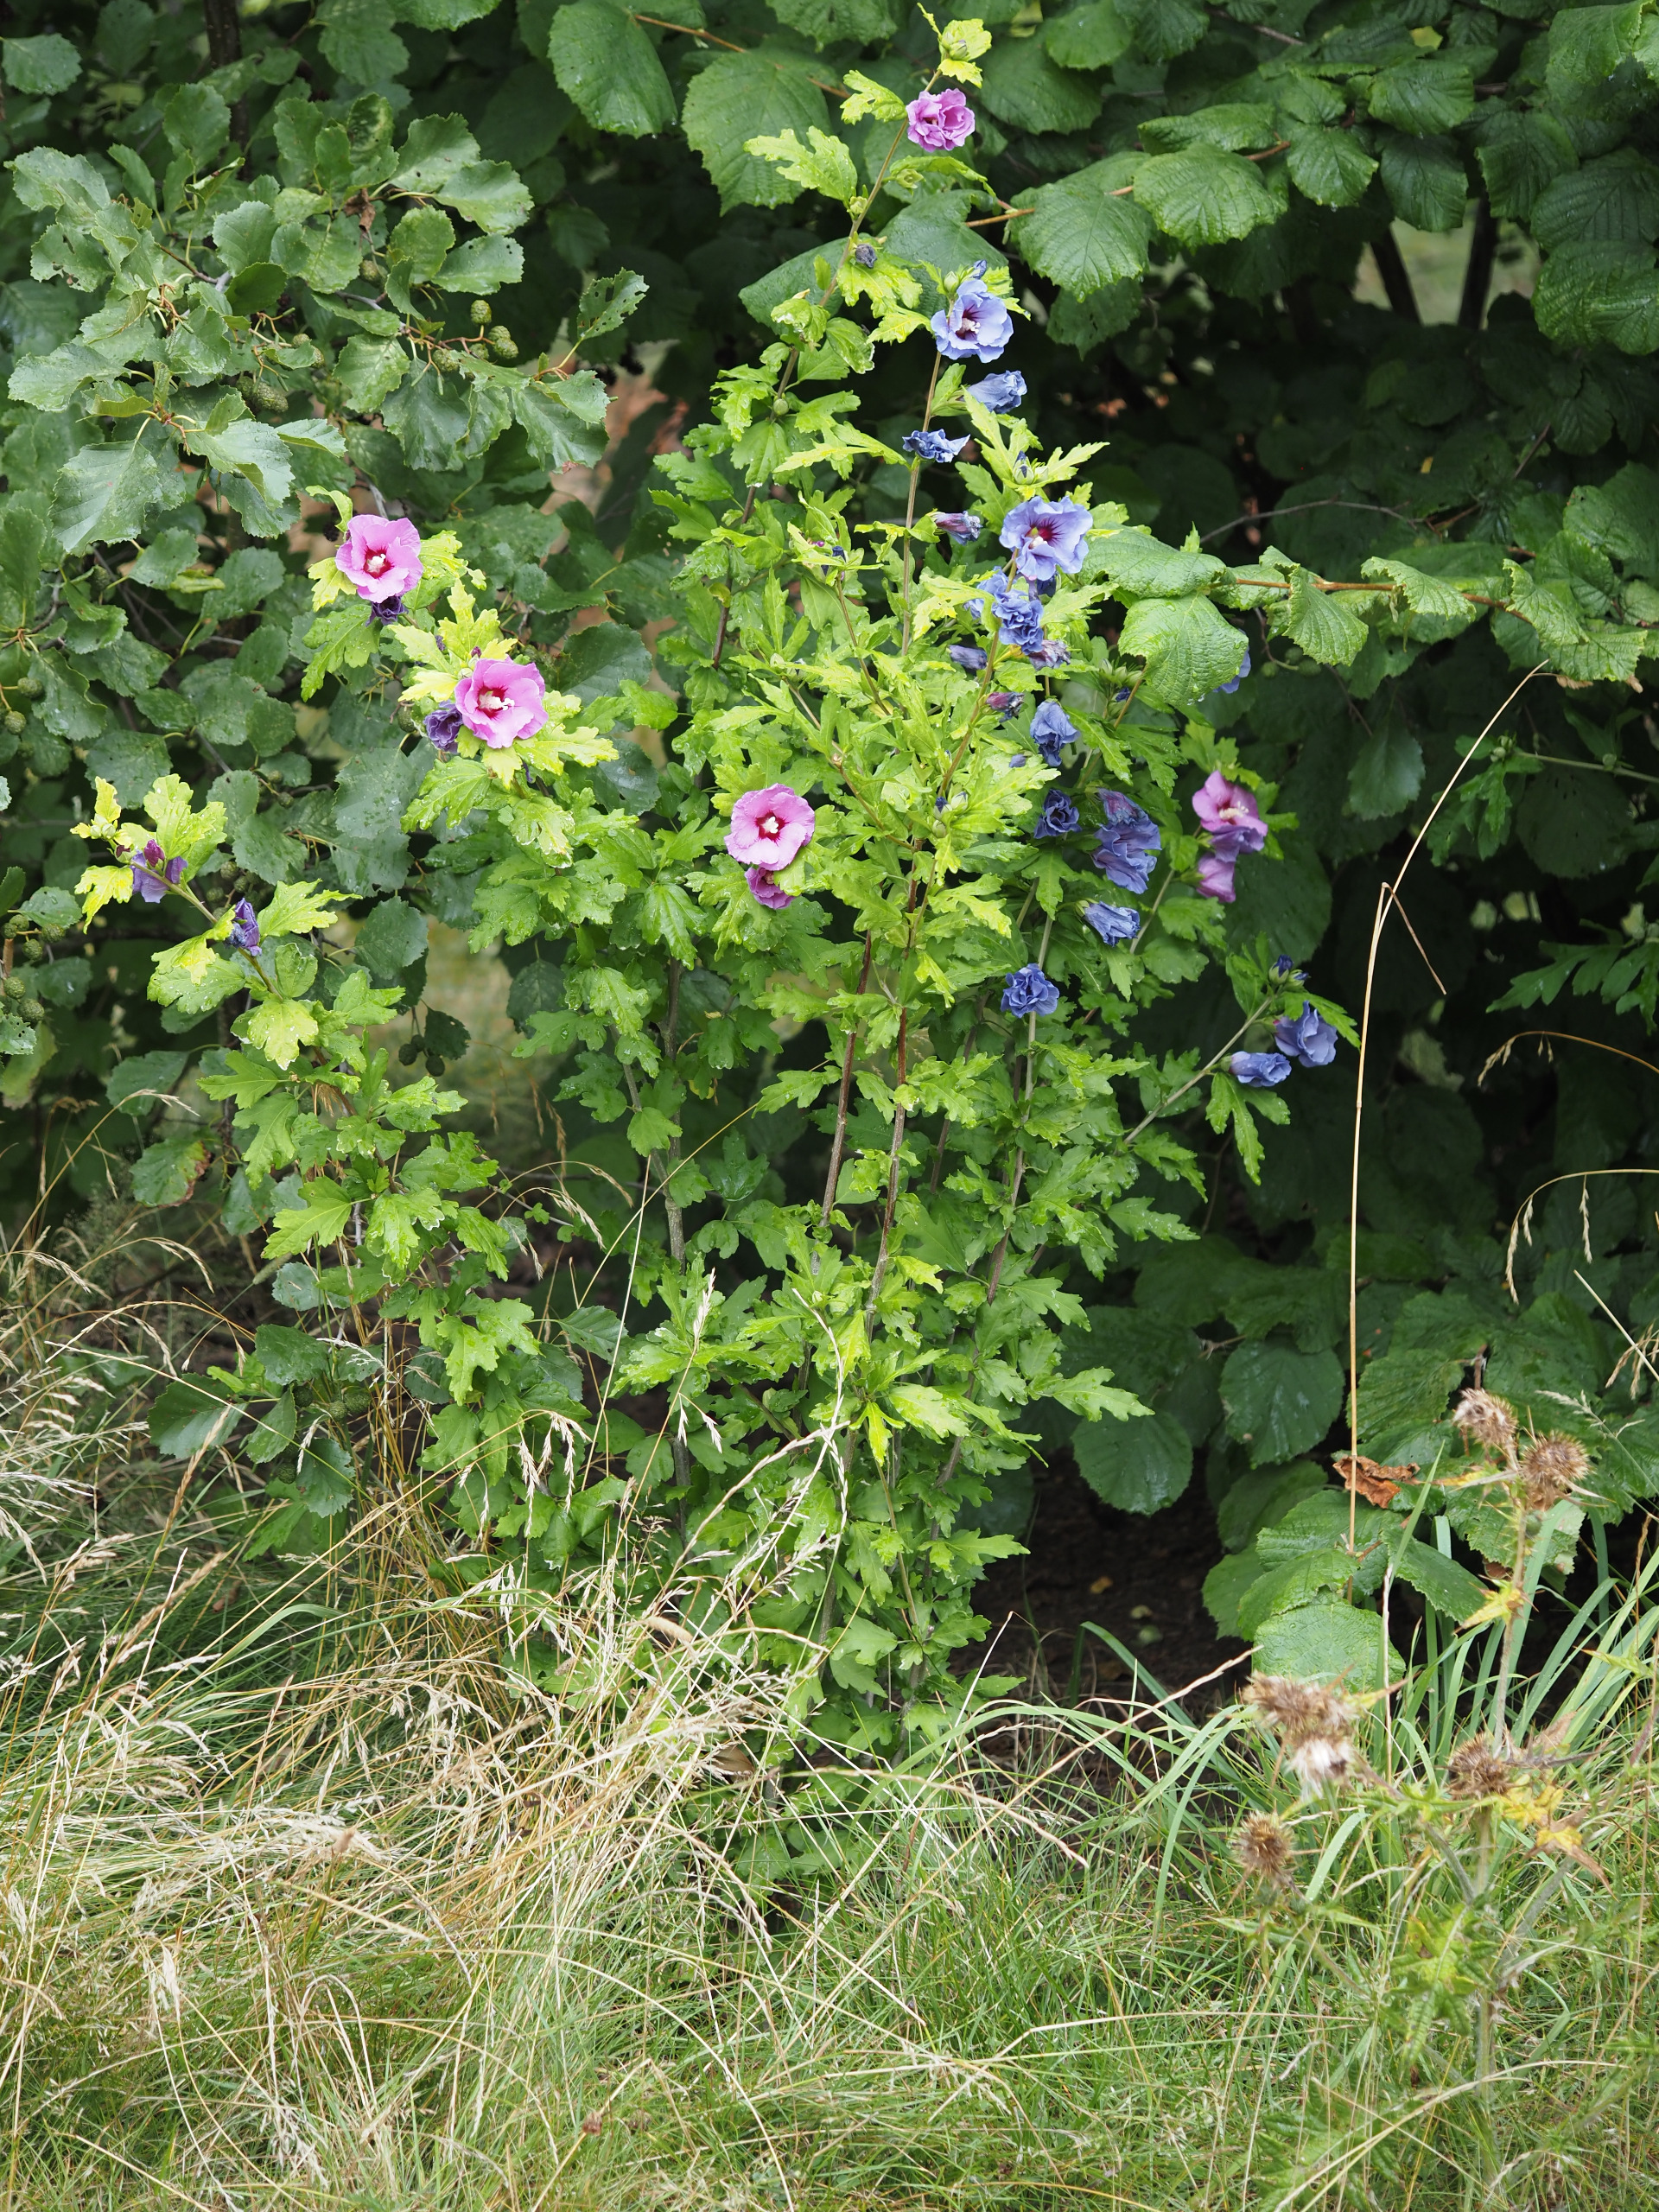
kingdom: Plantae
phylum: Tracheophyta
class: Magnoliopsida
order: Malvales
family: Malvaceae
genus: Hibiscus
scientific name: Hibiscus
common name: Hibiskusslægten
